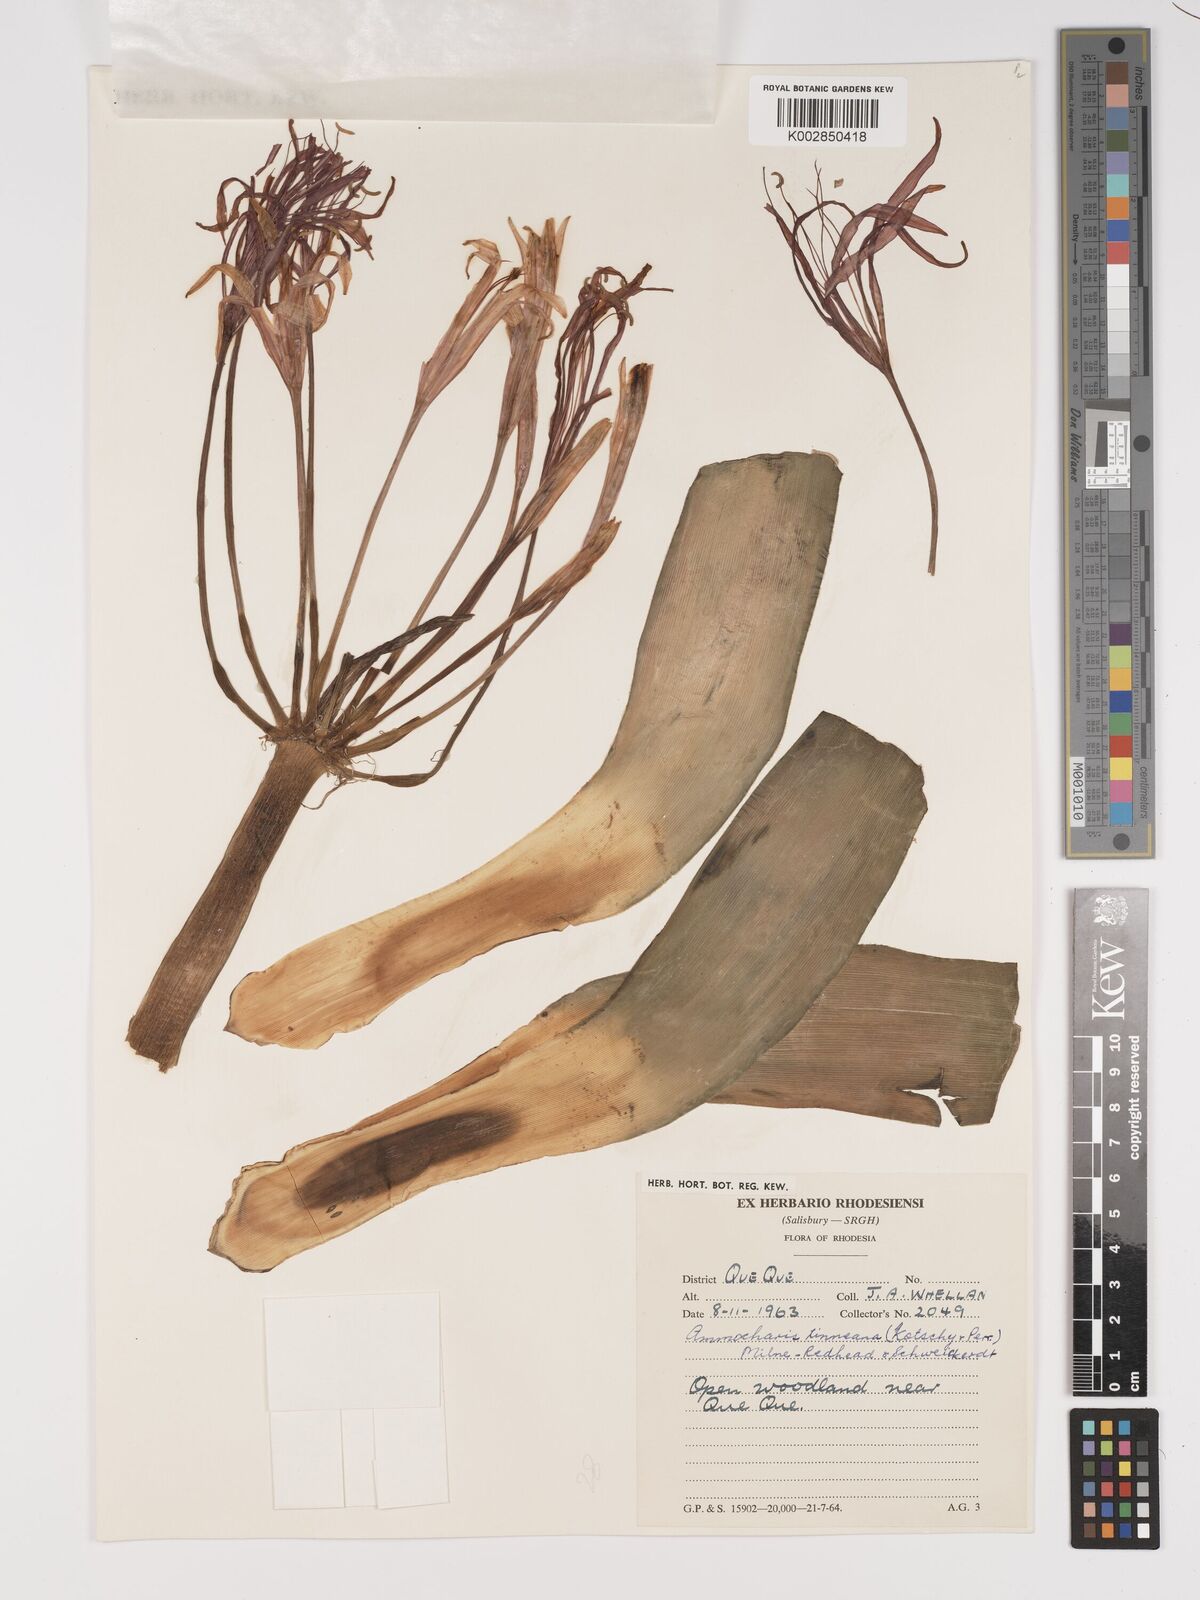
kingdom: Plantae
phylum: Tracheophyta
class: Liliopsida
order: Asparagales
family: Amaryllidaceae
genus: Ammocharis
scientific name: Ammocharis tinneana
